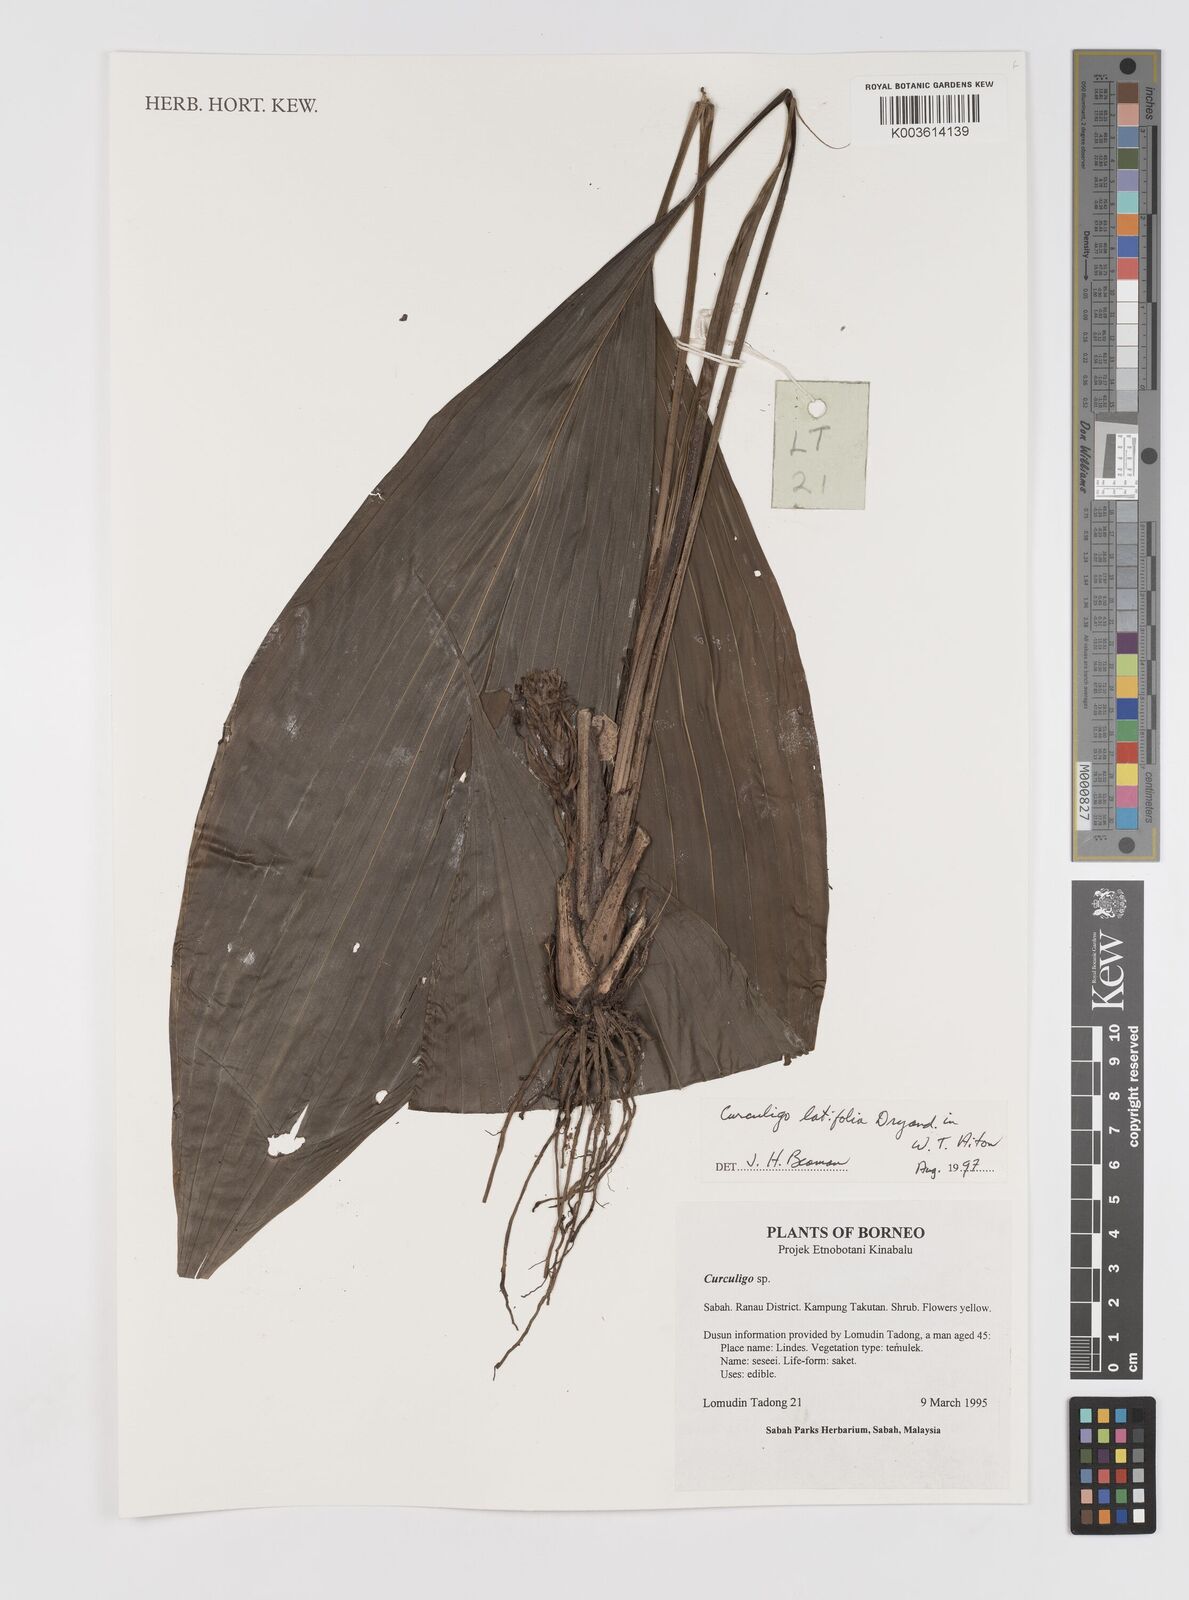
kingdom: Plantae
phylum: Tracheophyta
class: Liliopsida
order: Asparagales
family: Hypoxidaceae
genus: Curculigo
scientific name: Curculigo latifolia
